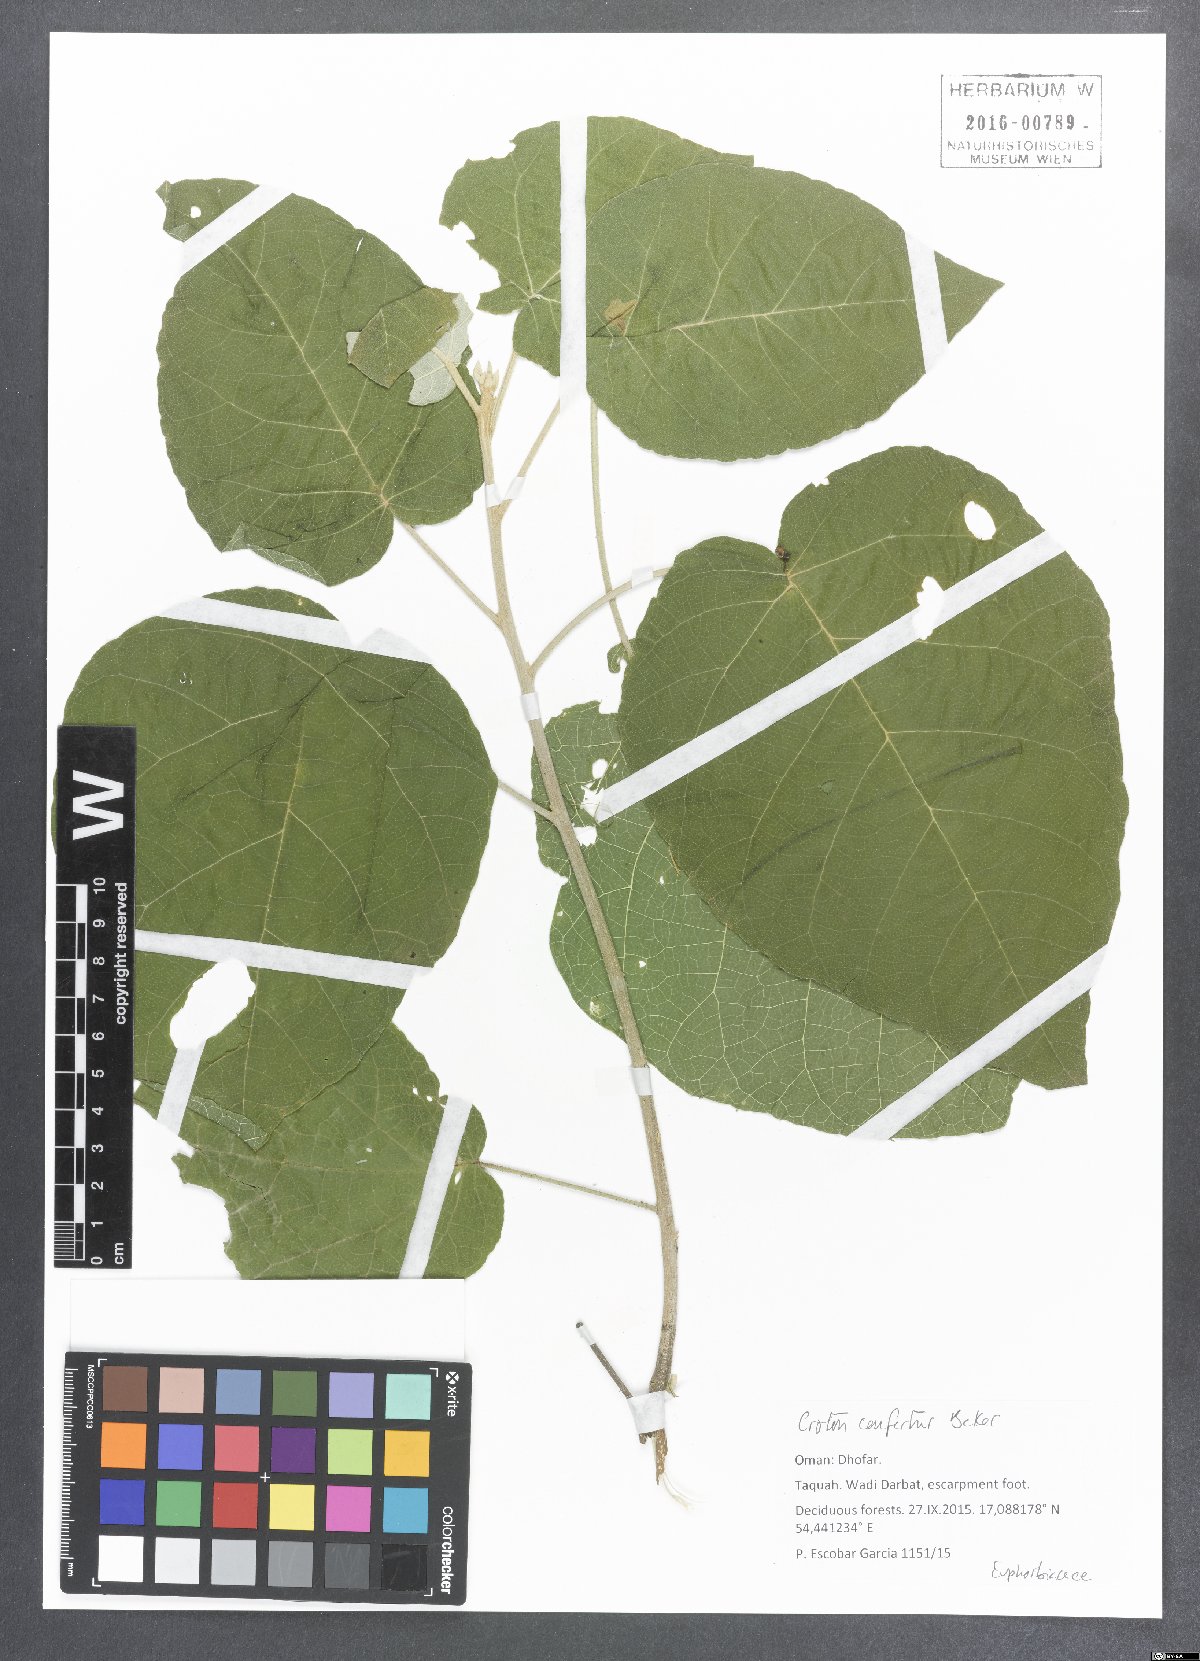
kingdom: Plantae
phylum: Tracheophyta
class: Magnoliopsida
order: Malpighiales
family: Euphorbiaceae
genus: Croton
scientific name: Croton confertus
